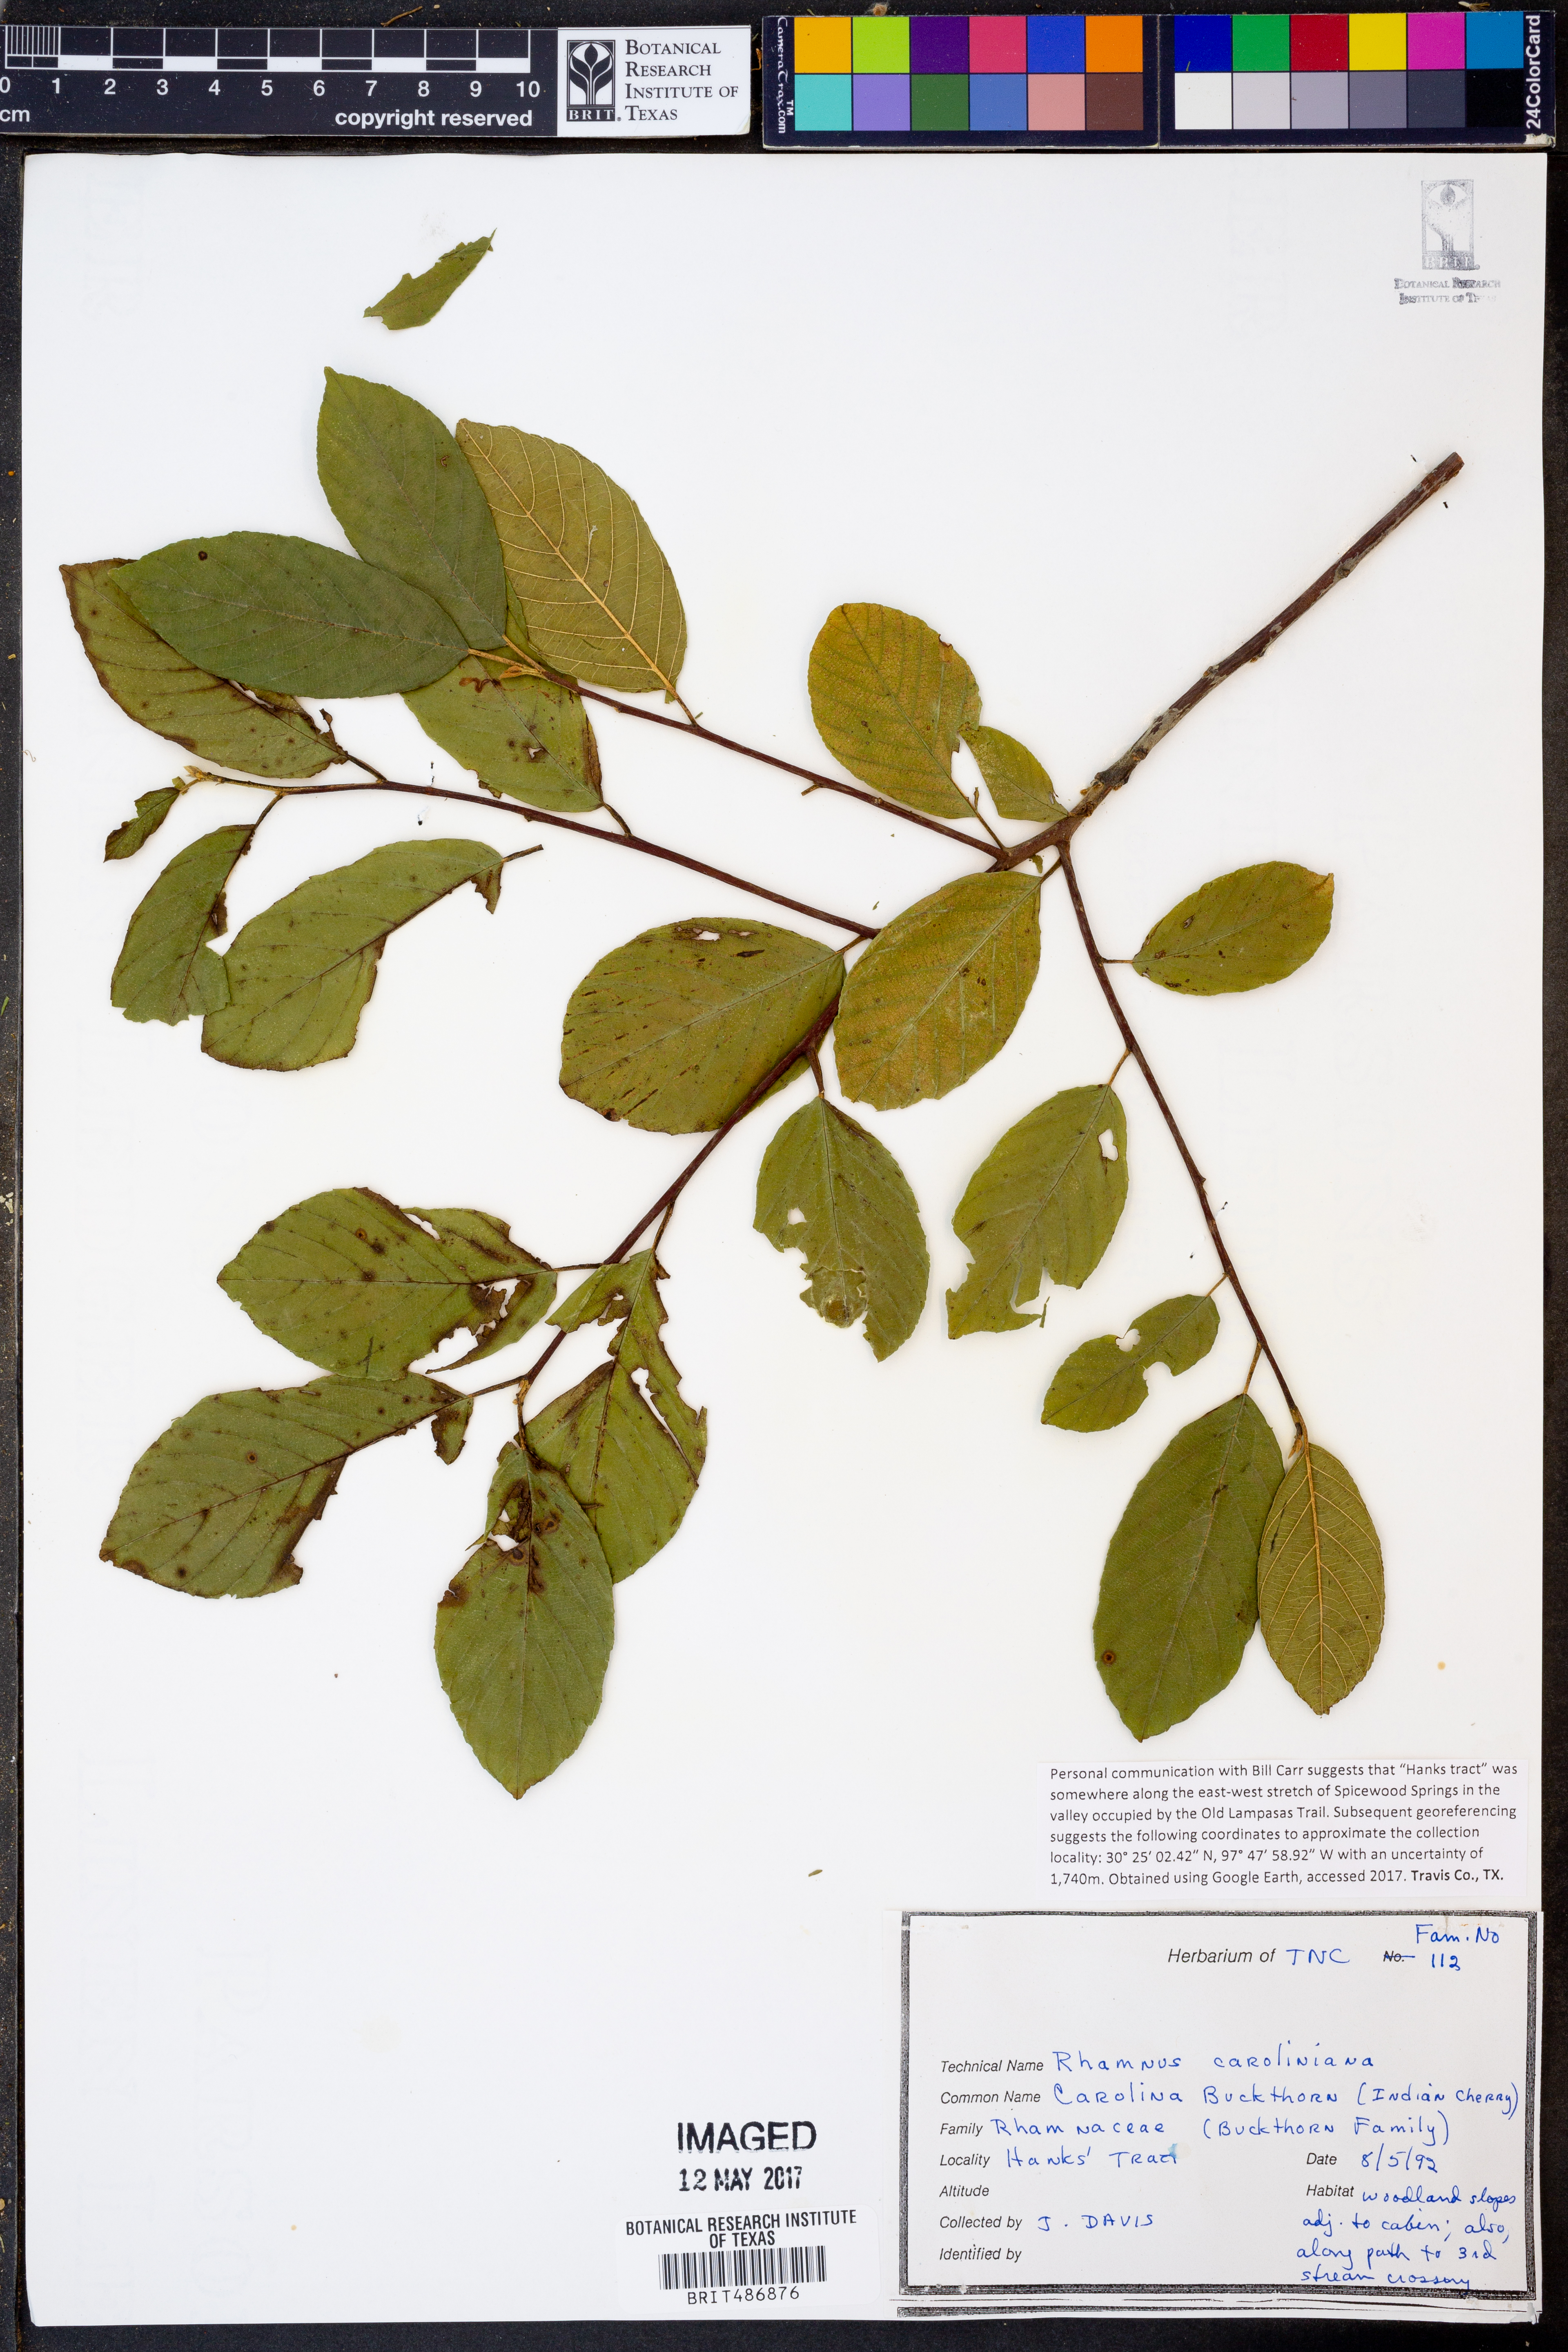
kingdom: Plantae
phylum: Tracheophyta
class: Magnoliopsida
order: Rosales
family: Rhamnaceae
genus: Frangula
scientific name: Frangula caroliniana
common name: Carolina buckthorn
